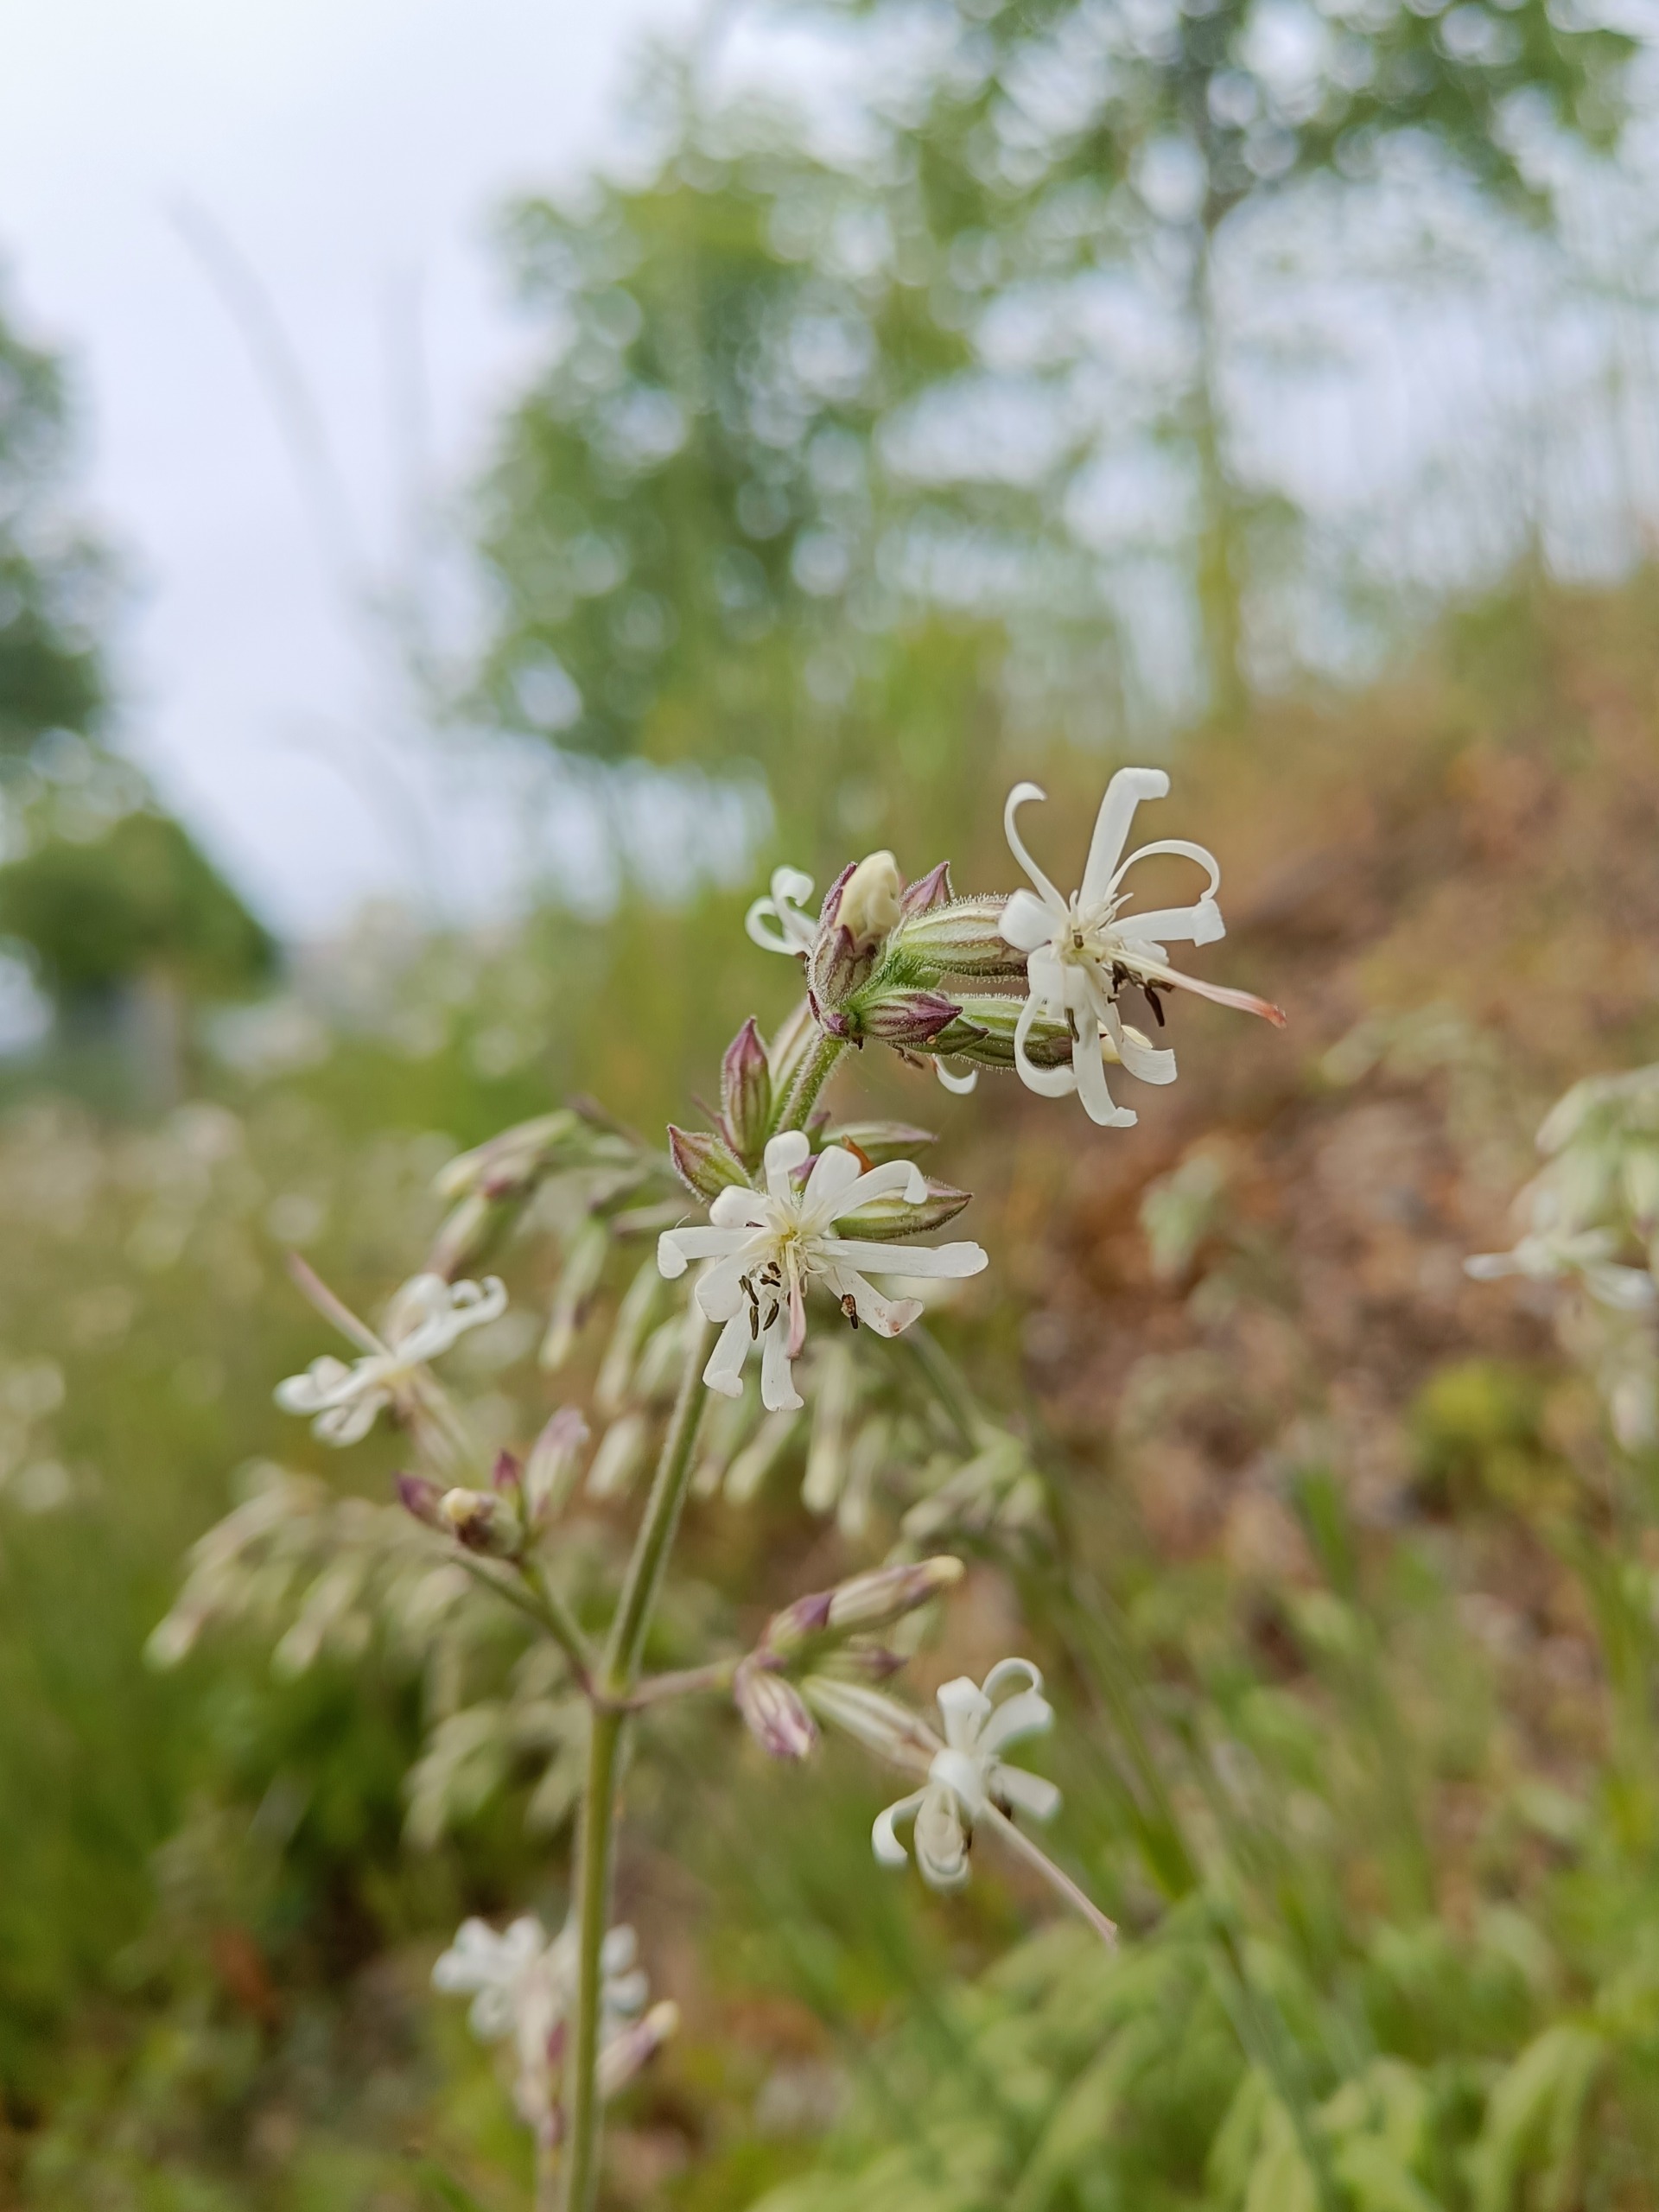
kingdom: Plantae
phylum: Tracheophyta
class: Magnoliopsida
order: Caryophyllales
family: Caryophyllaceae
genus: Silene
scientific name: Silene nutans
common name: Nikkende limurt
